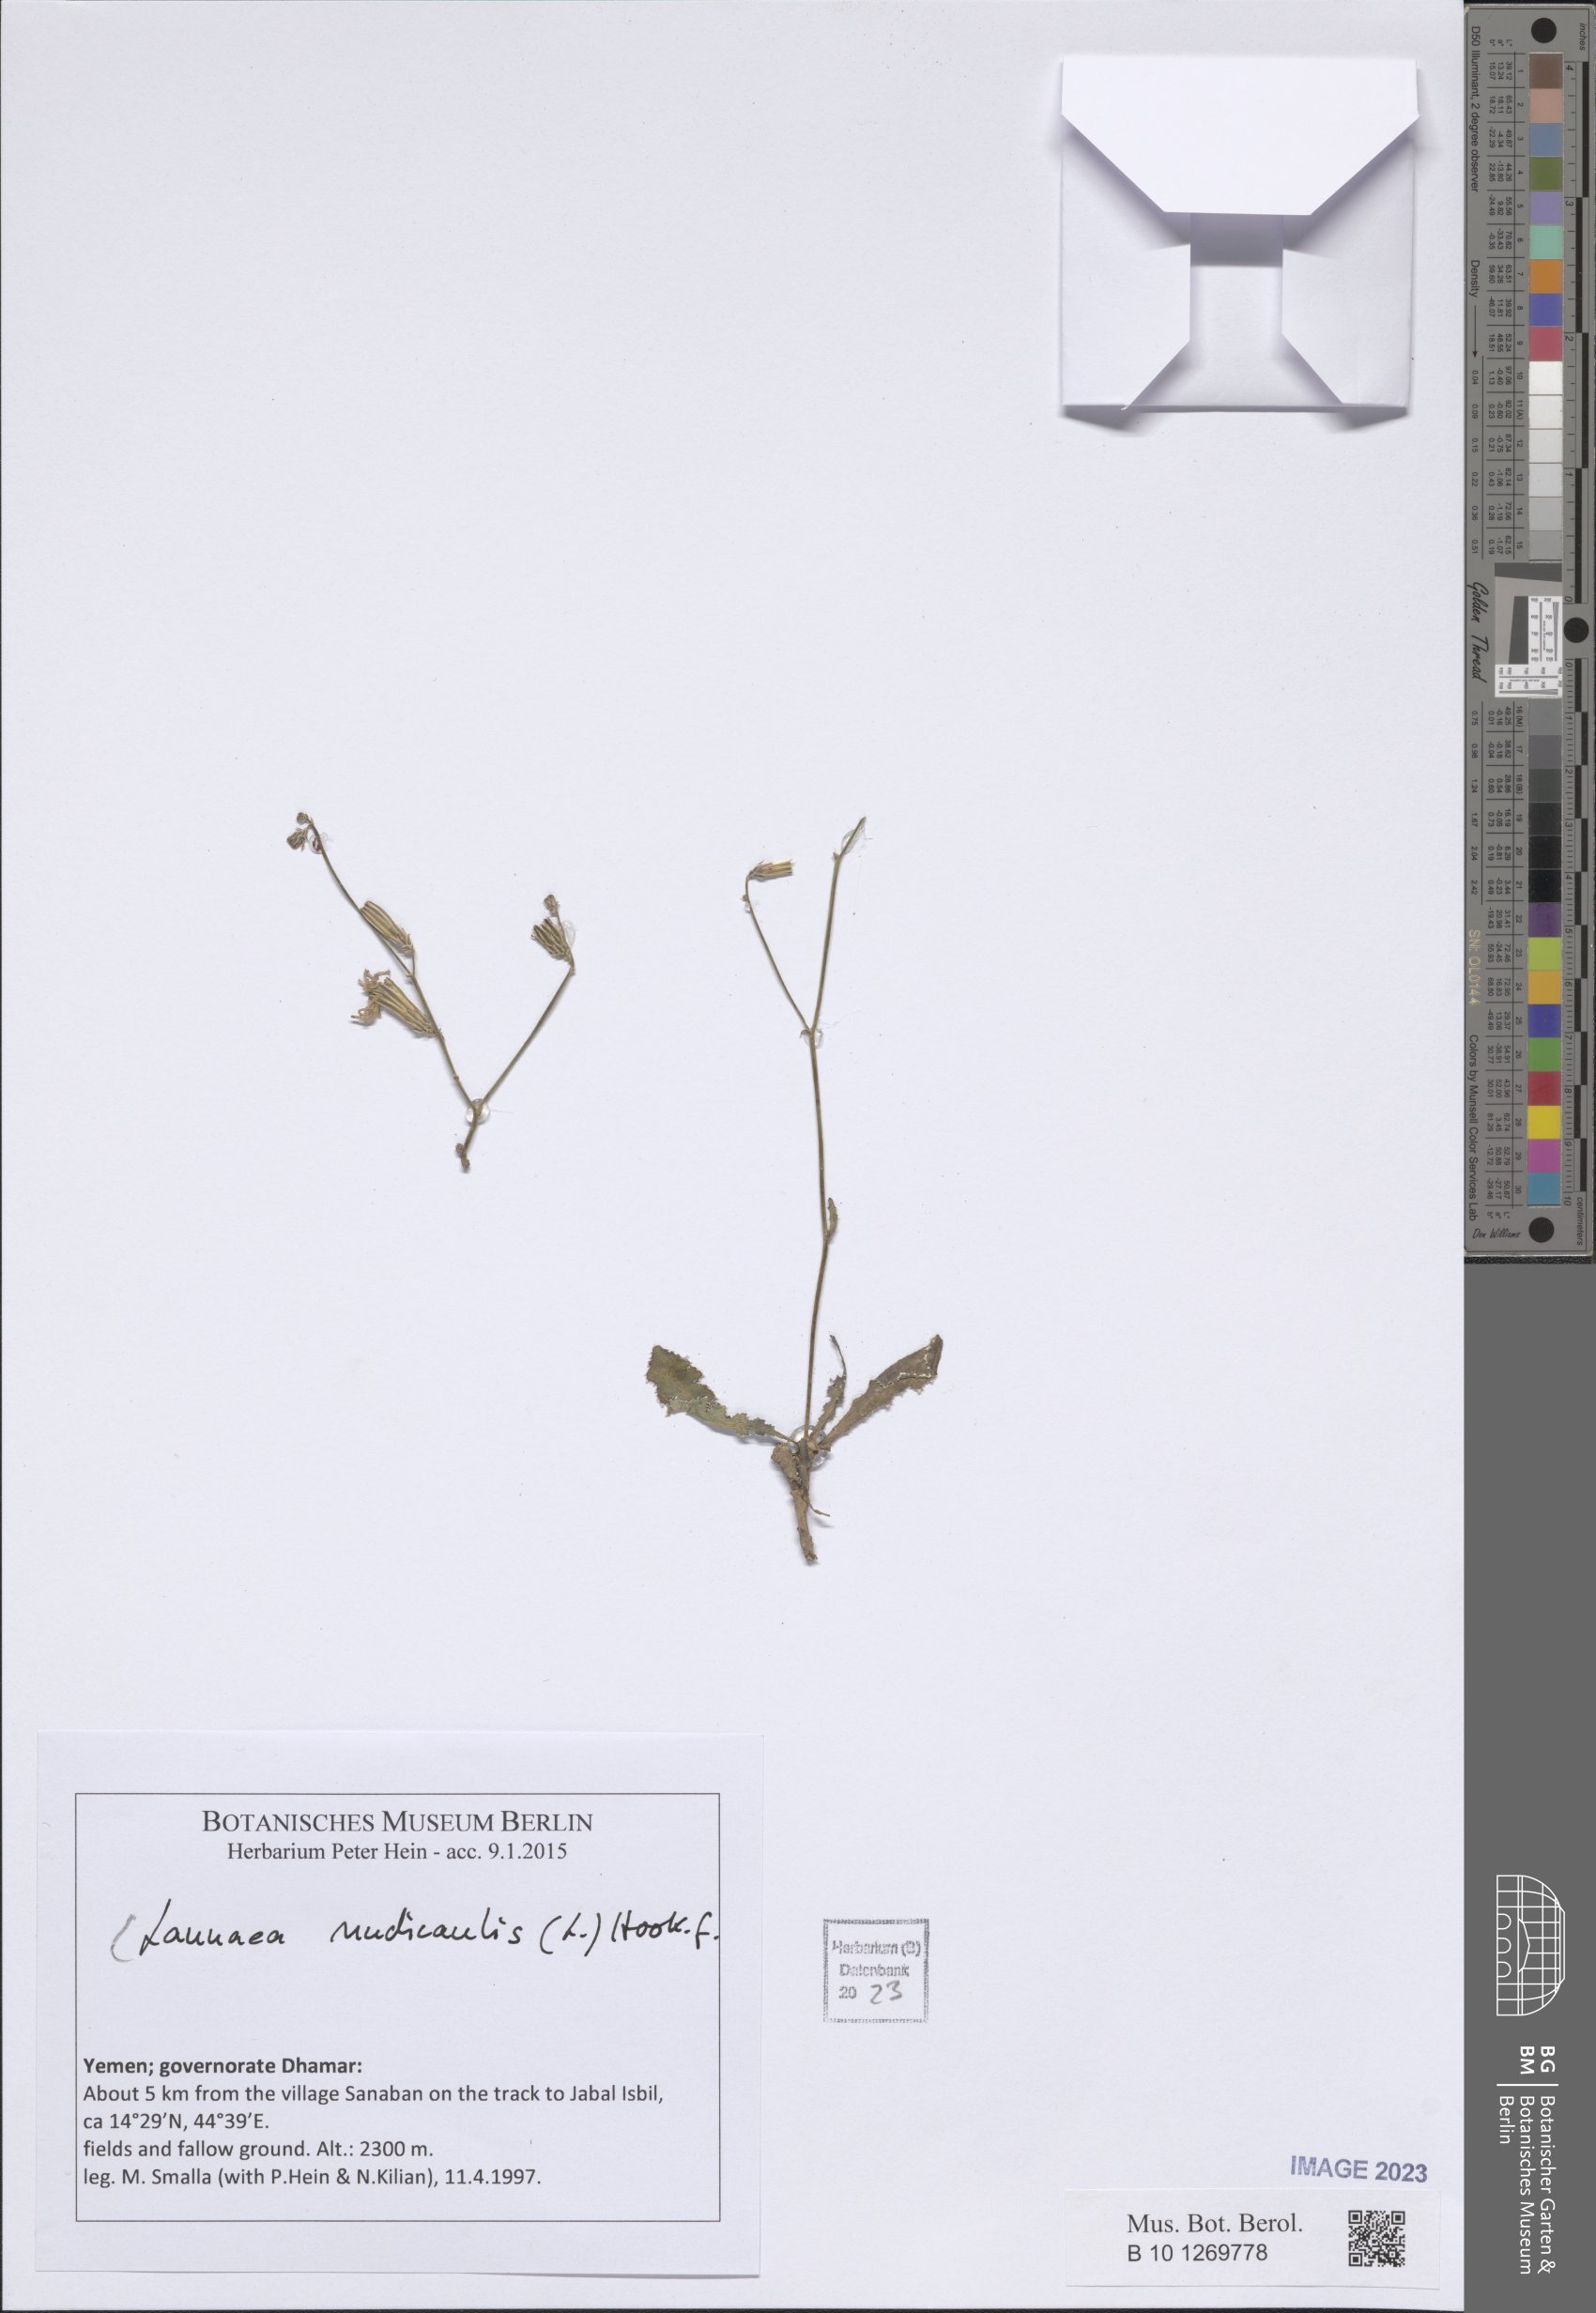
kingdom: Plantae
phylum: Tracheophyta
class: Magnoliopsida
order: Asterales
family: Asteraceae
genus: Launaea
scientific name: Launaea nudicaulis
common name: Naked launaea
